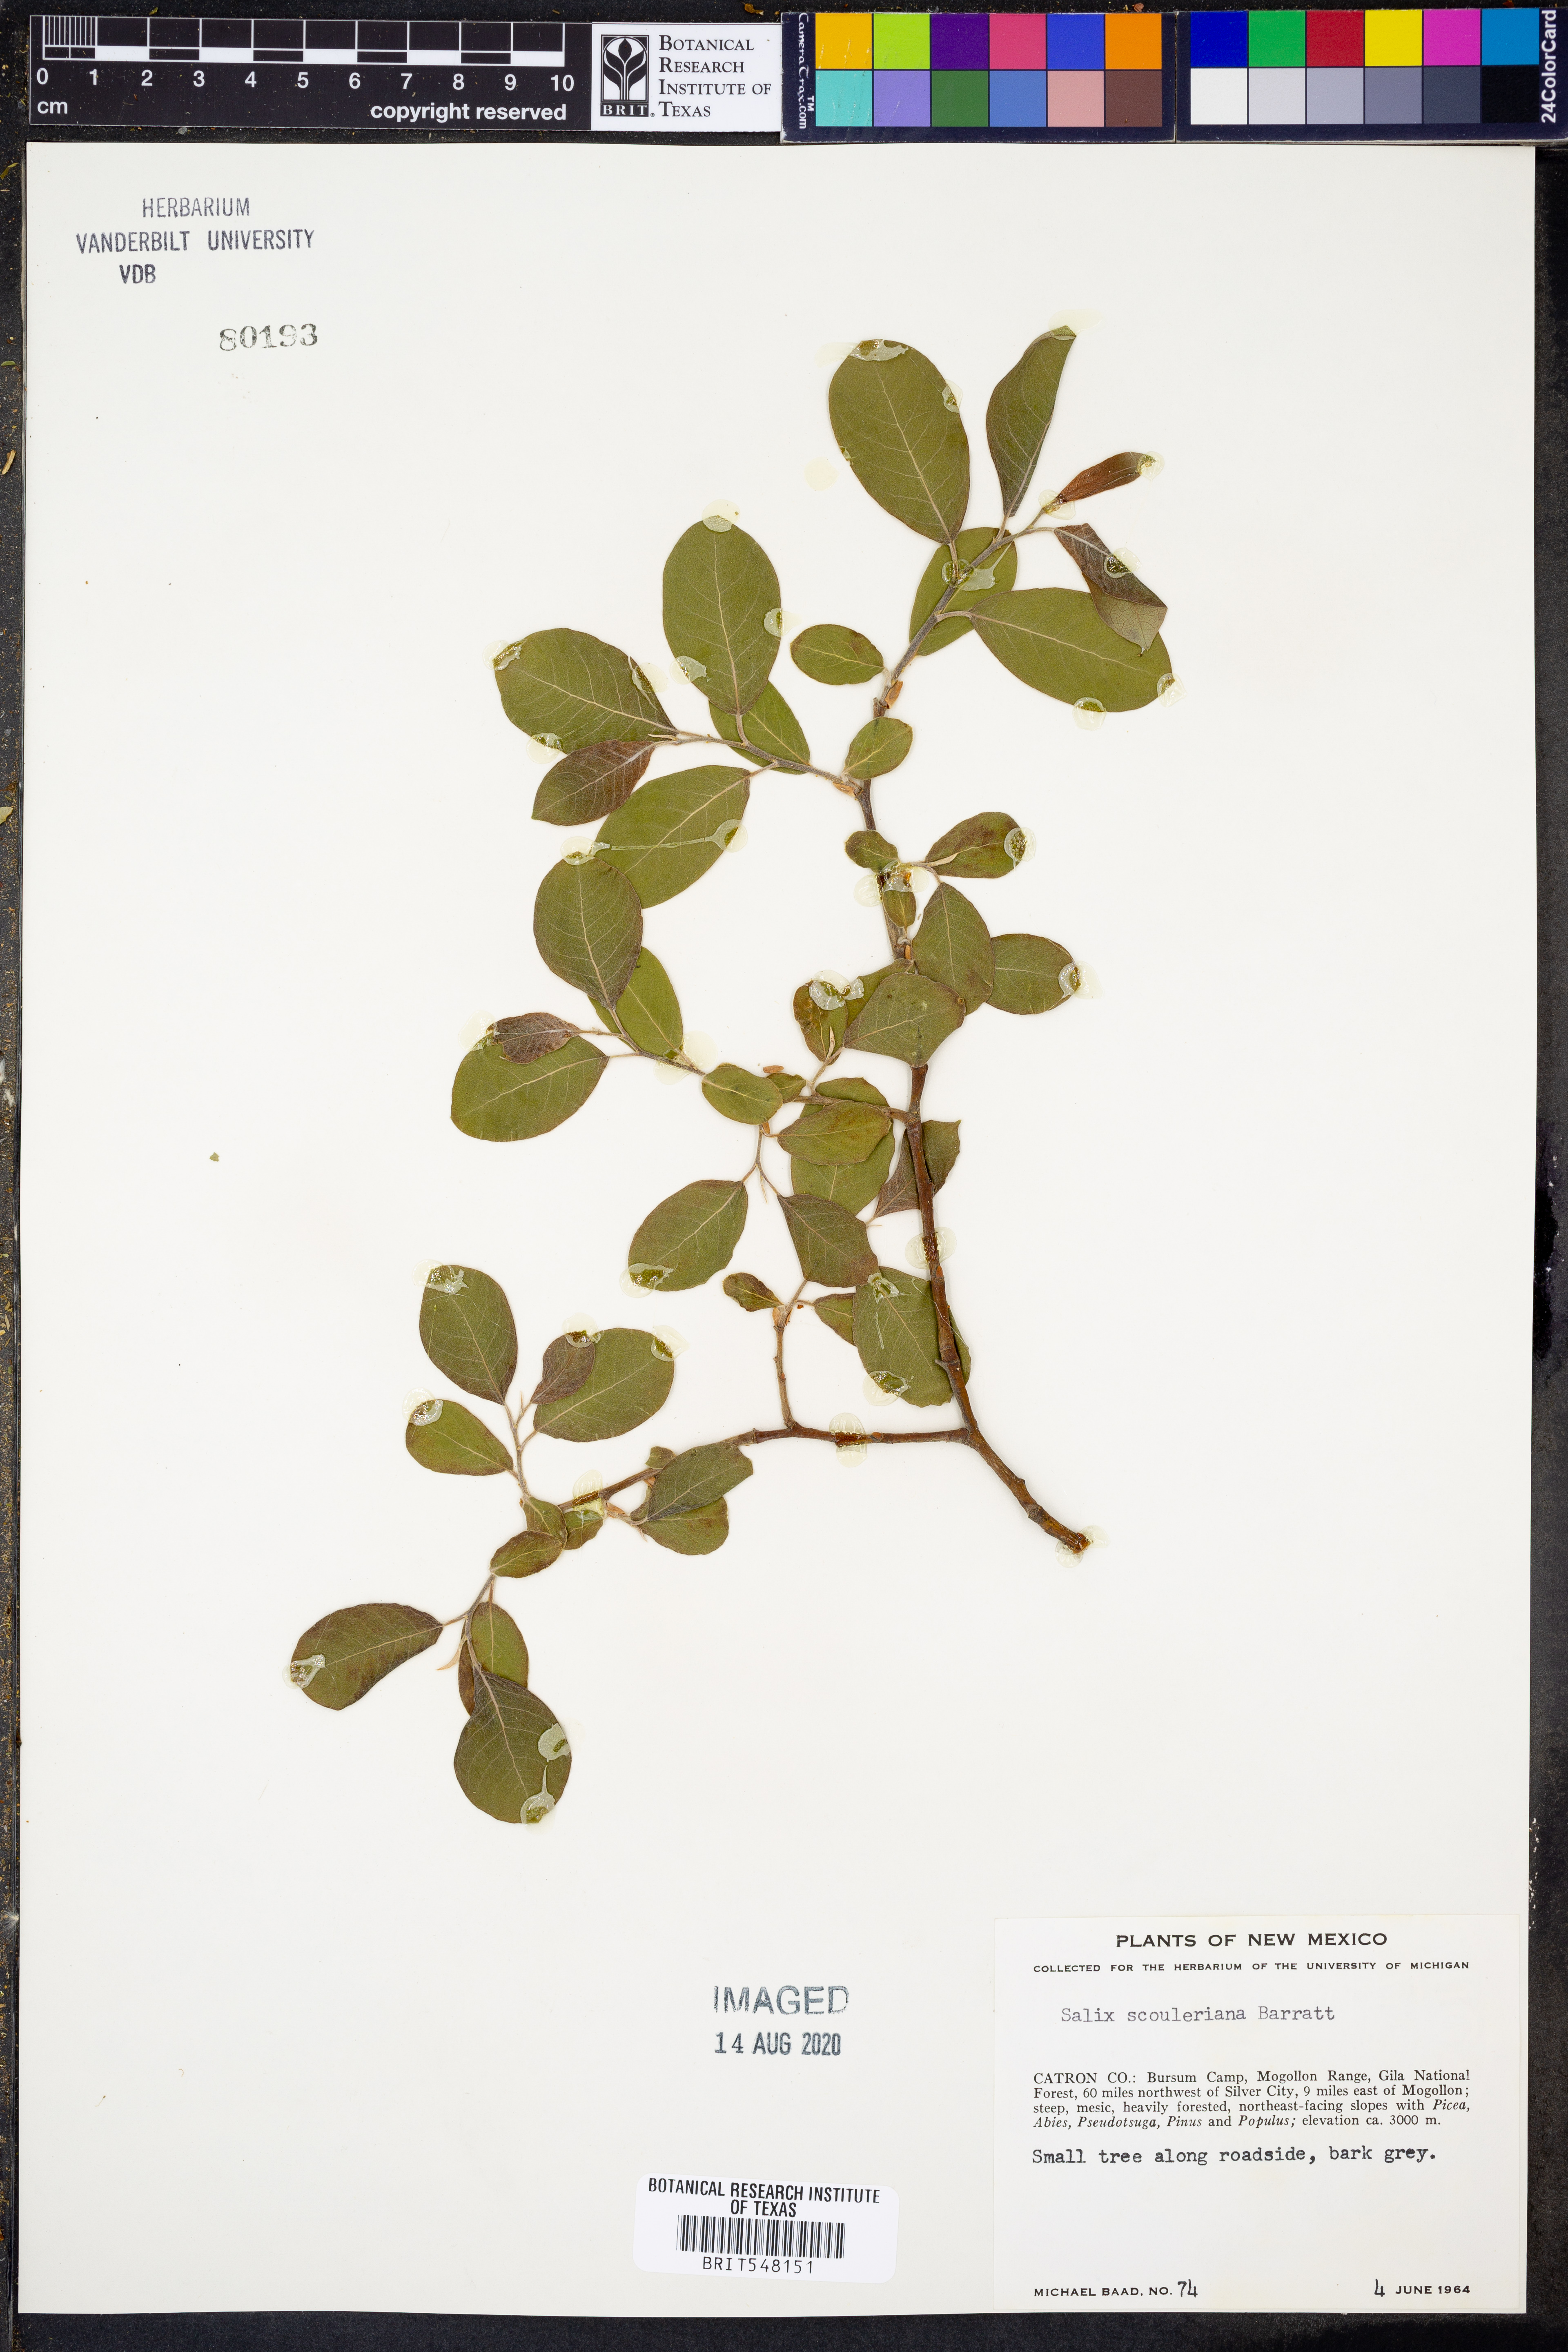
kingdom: Plantae
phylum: Tracheophyta
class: Magnoliopsida
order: Malpighiales
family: Salicaceae
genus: Salix
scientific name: Salix scouleriana
